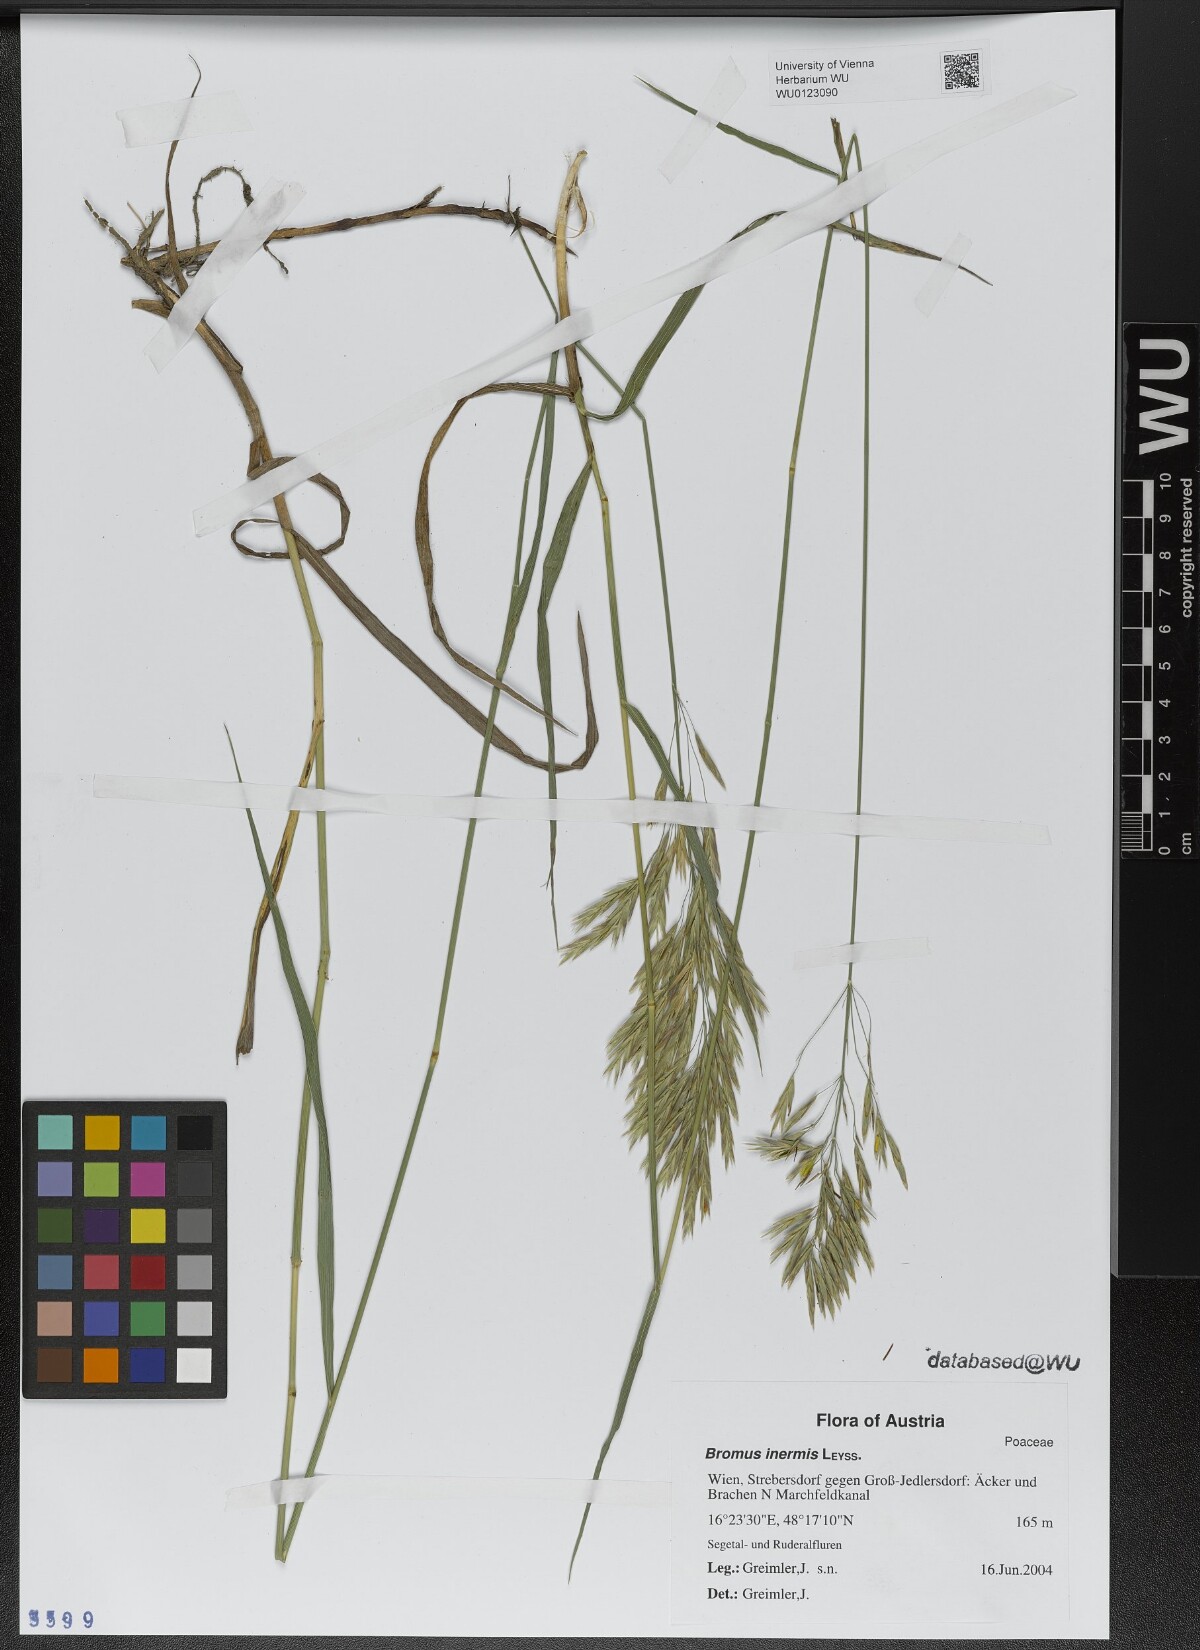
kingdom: Plantae
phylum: Tracheophyta
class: Liliopsida
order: Poales
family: Poaceae
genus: Bromus
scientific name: Bromus inermis
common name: Smooth brome
